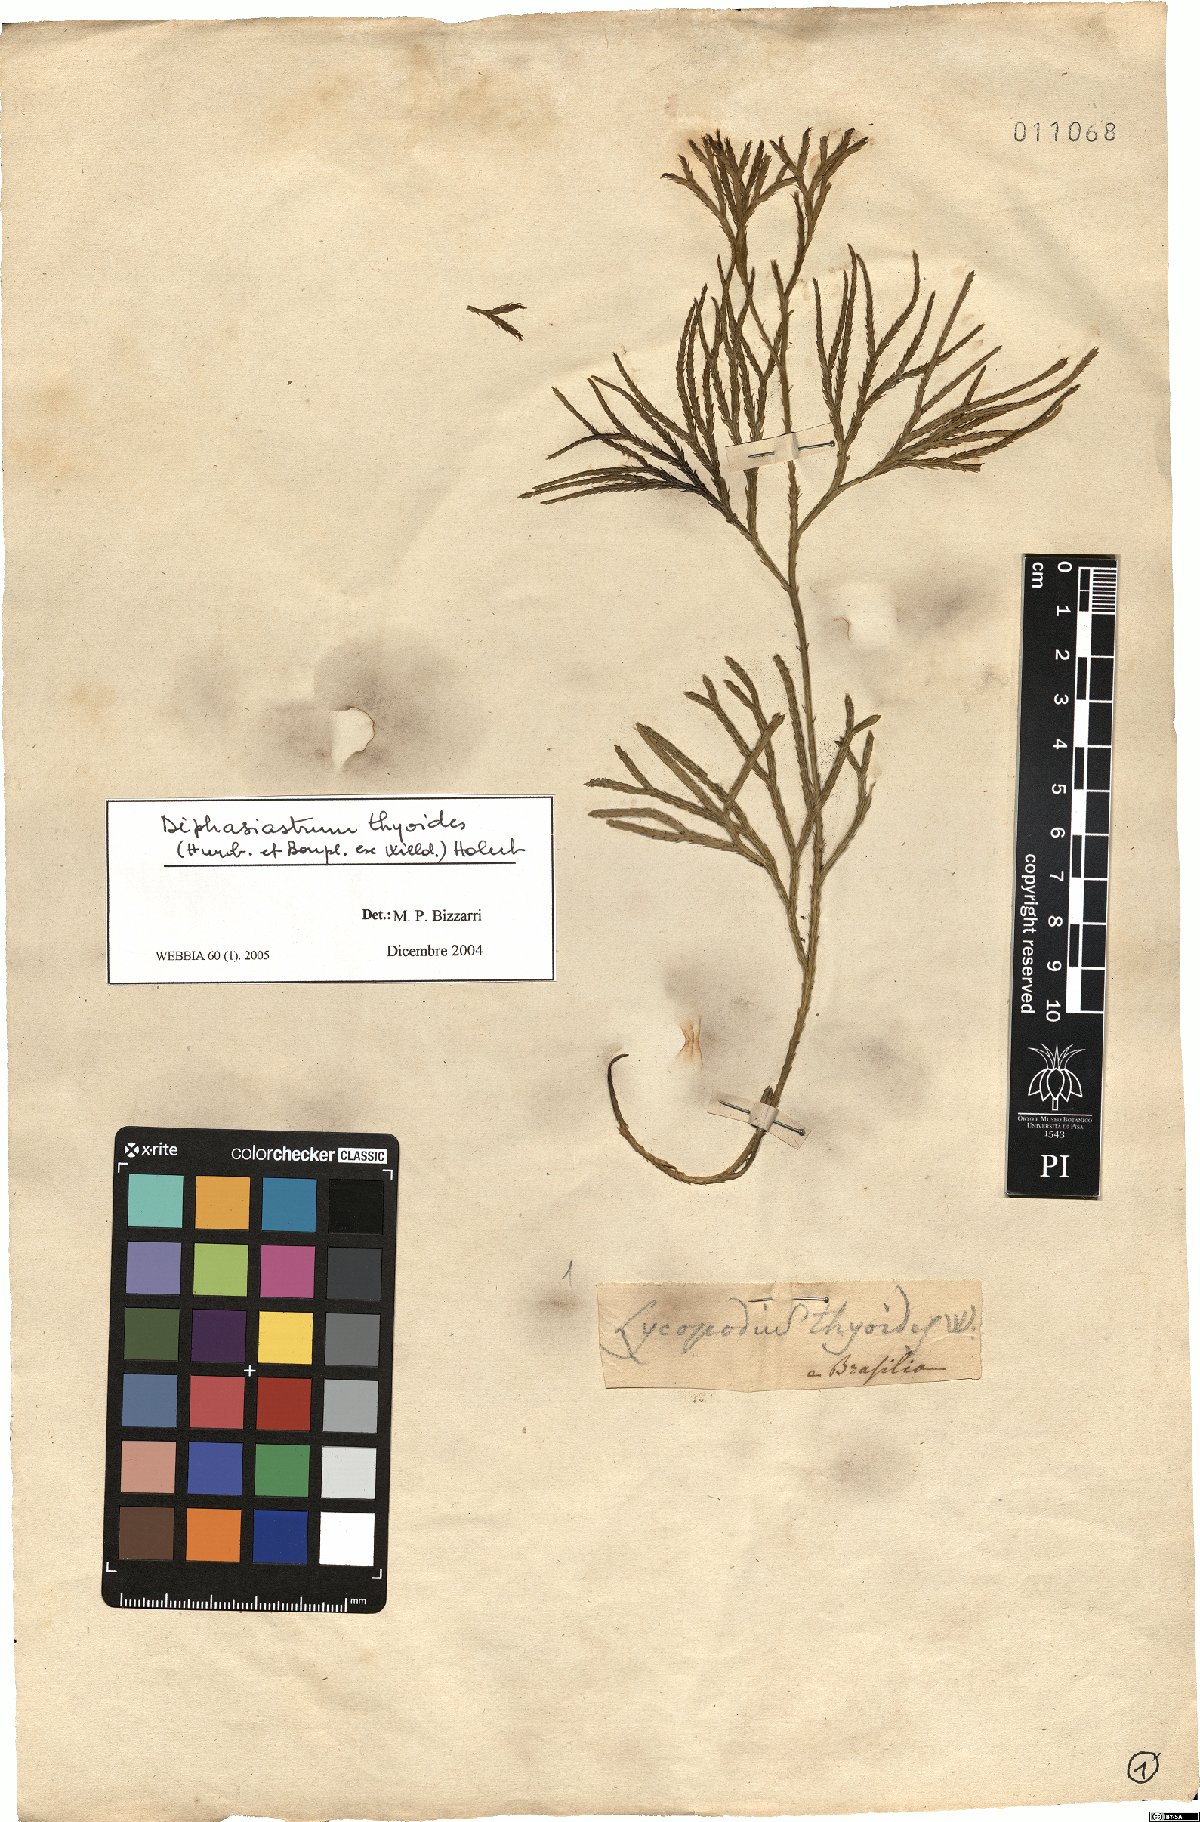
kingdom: Plantae
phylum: Tracheophyta
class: Lycopodiopsida
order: Lycopodiales
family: Lycopodiaceae
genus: Diphasiastrum
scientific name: Diphasiastrum thyoides
